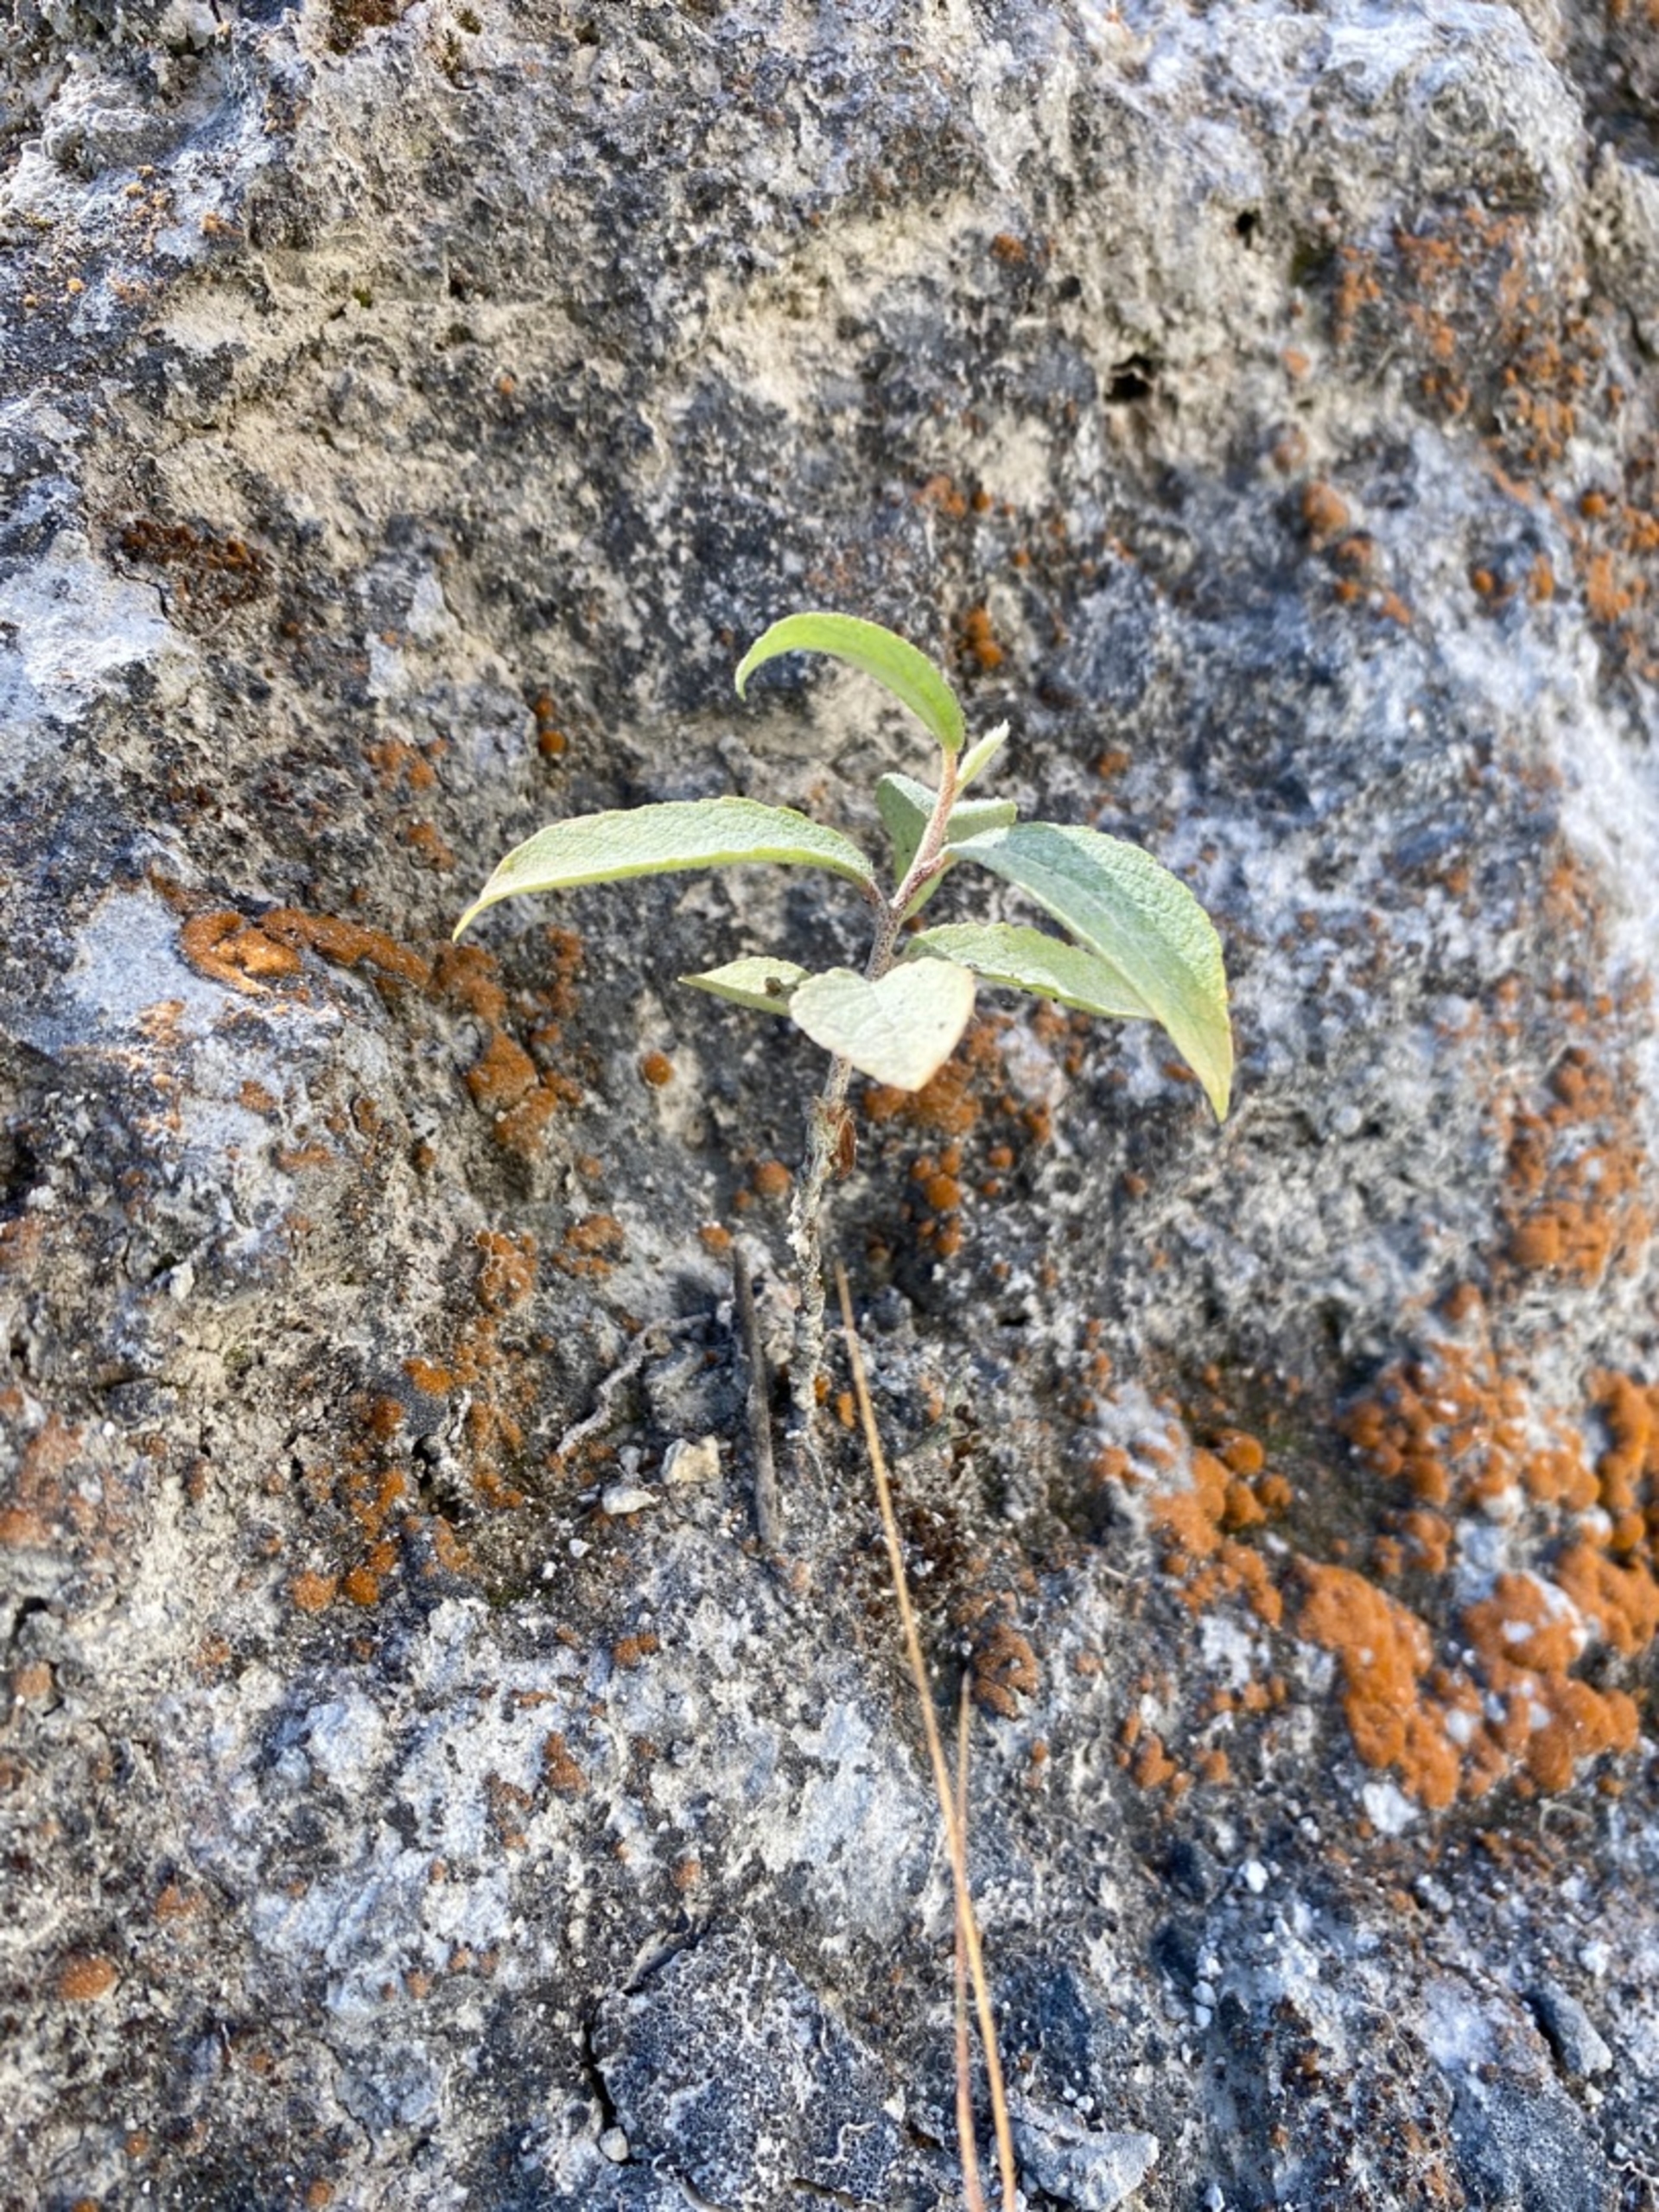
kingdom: Plantae
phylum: Tracheophyta
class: Magnoliopsida
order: Lamiales
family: Scrophulariaceae
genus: Buddleja
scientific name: Buddleja davidii
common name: Sommerfuglebusk
